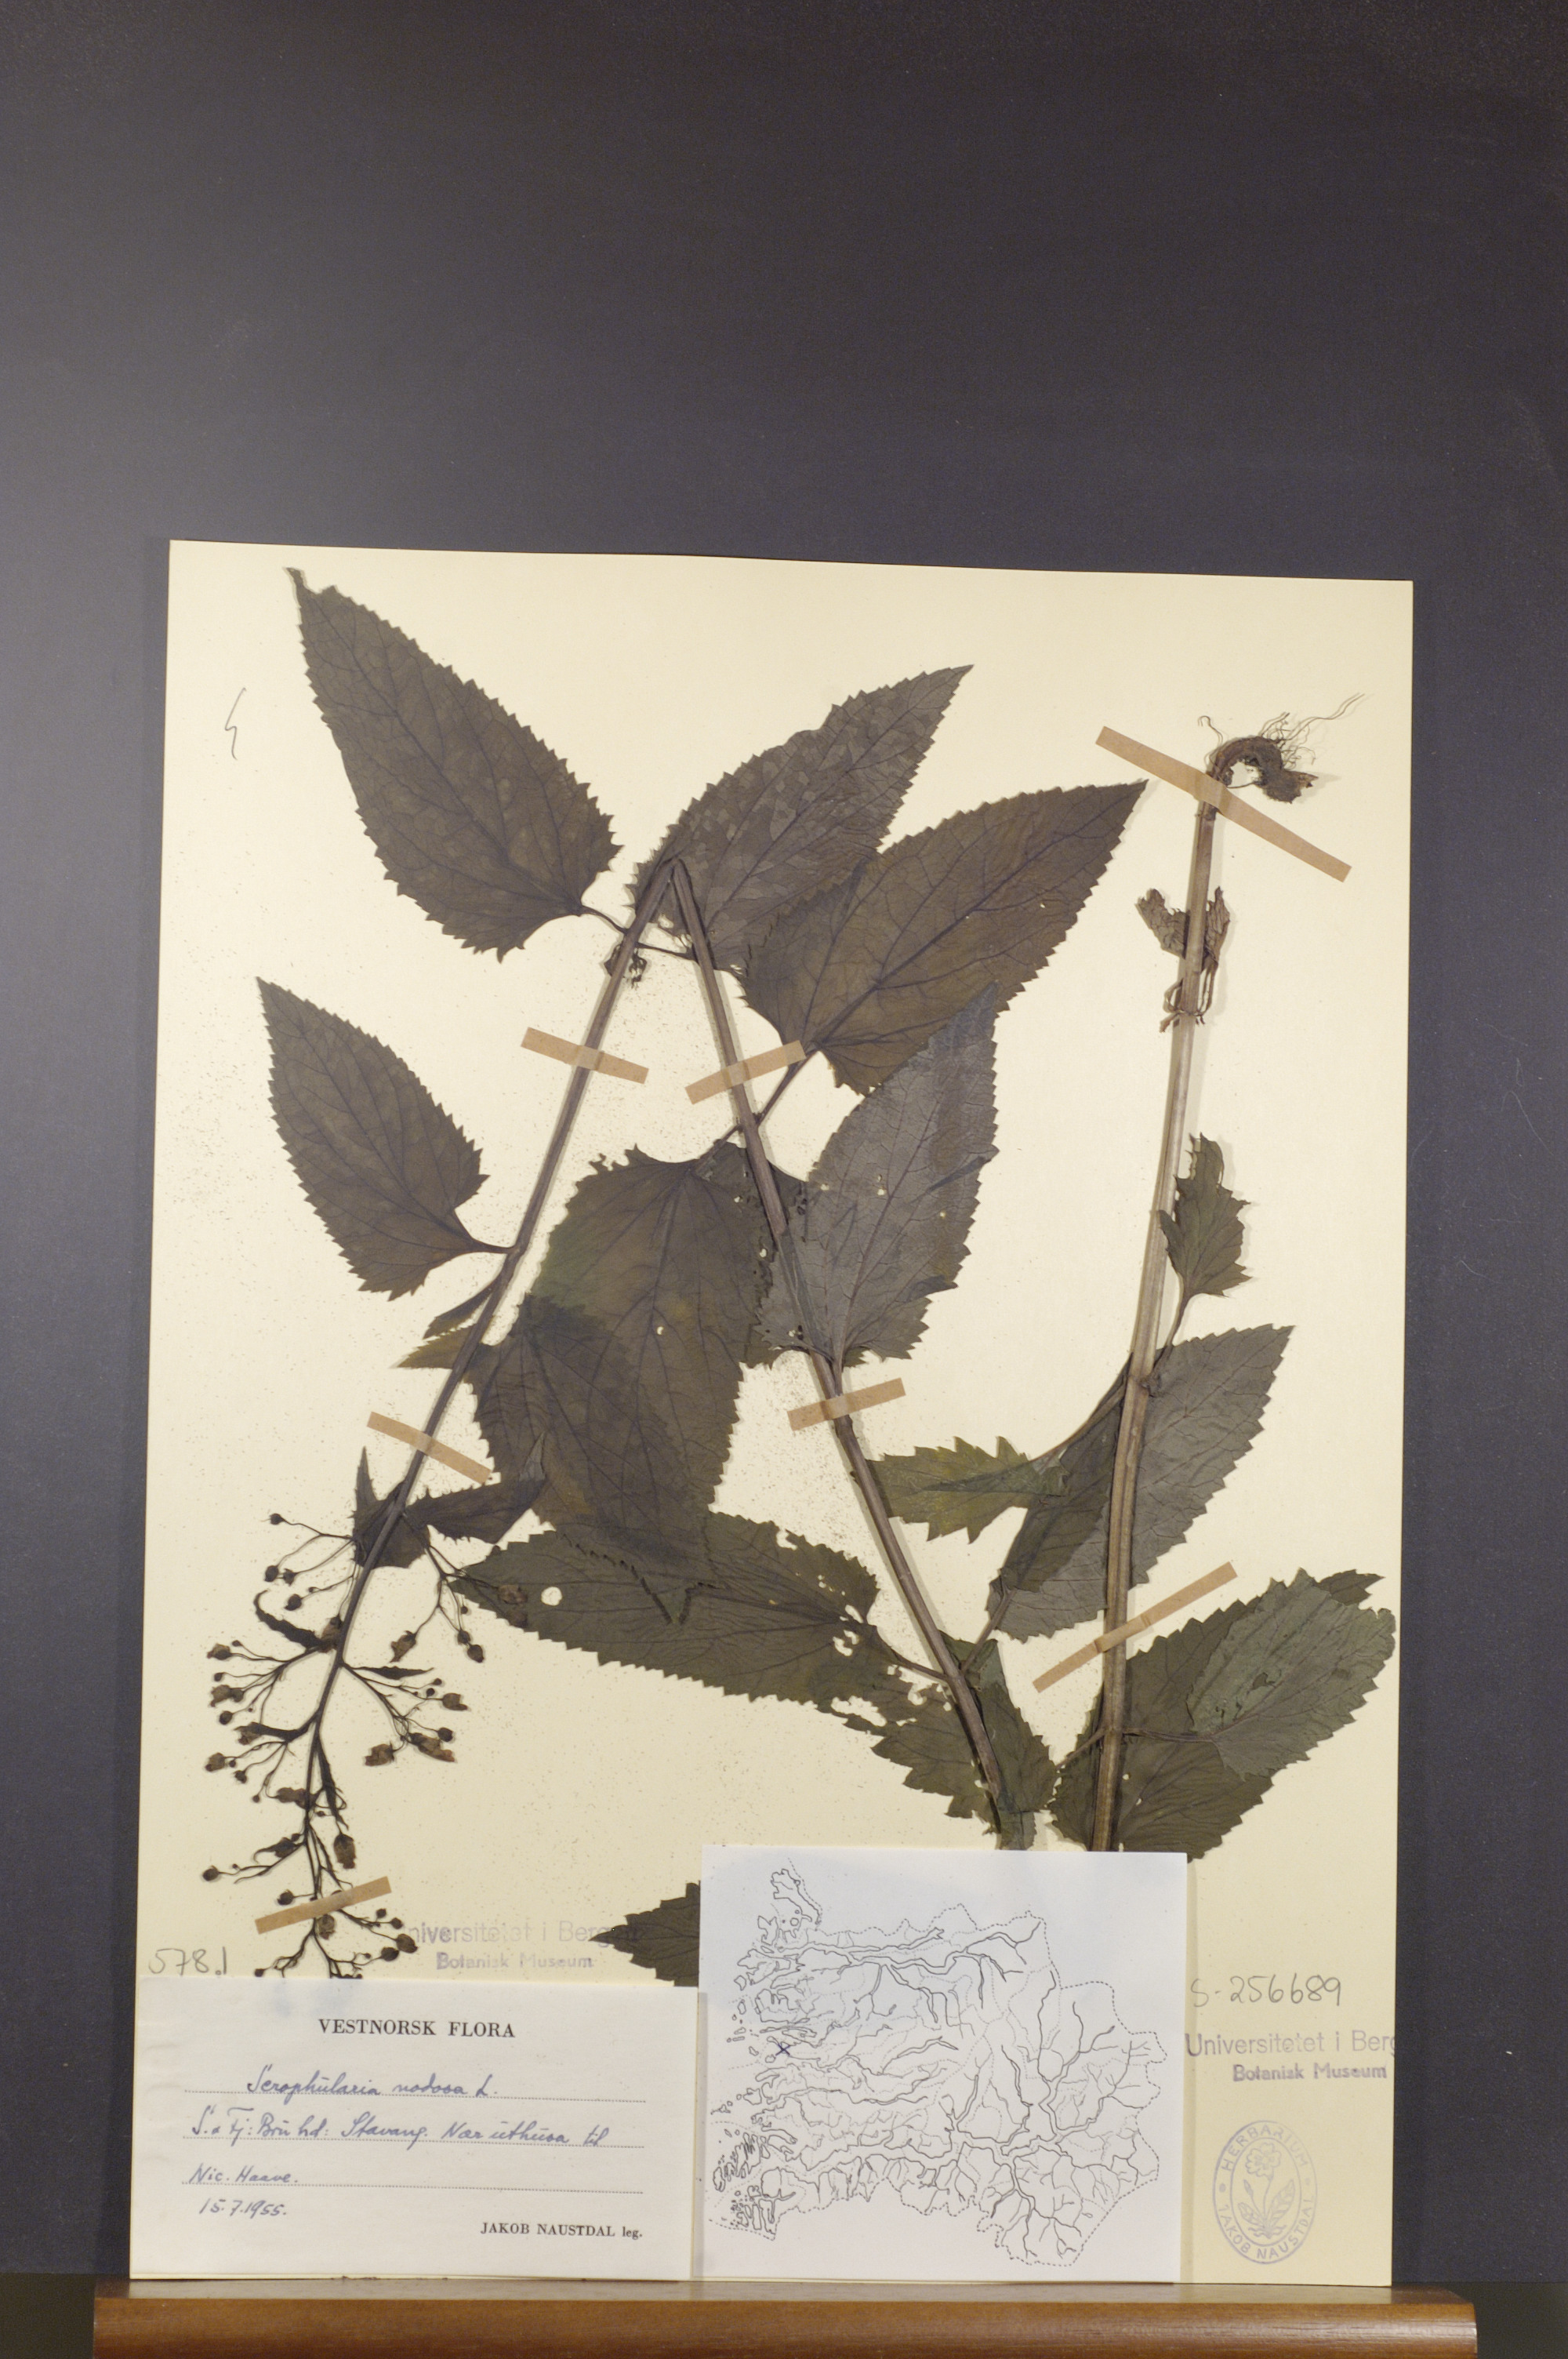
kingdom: Plantae
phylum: Tracheophyta
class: Magnoliopsida
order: Lamiales
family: Scrophulariaceae
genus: Scrophularia
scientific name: Scrophularia nodosa
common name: Common figwort
